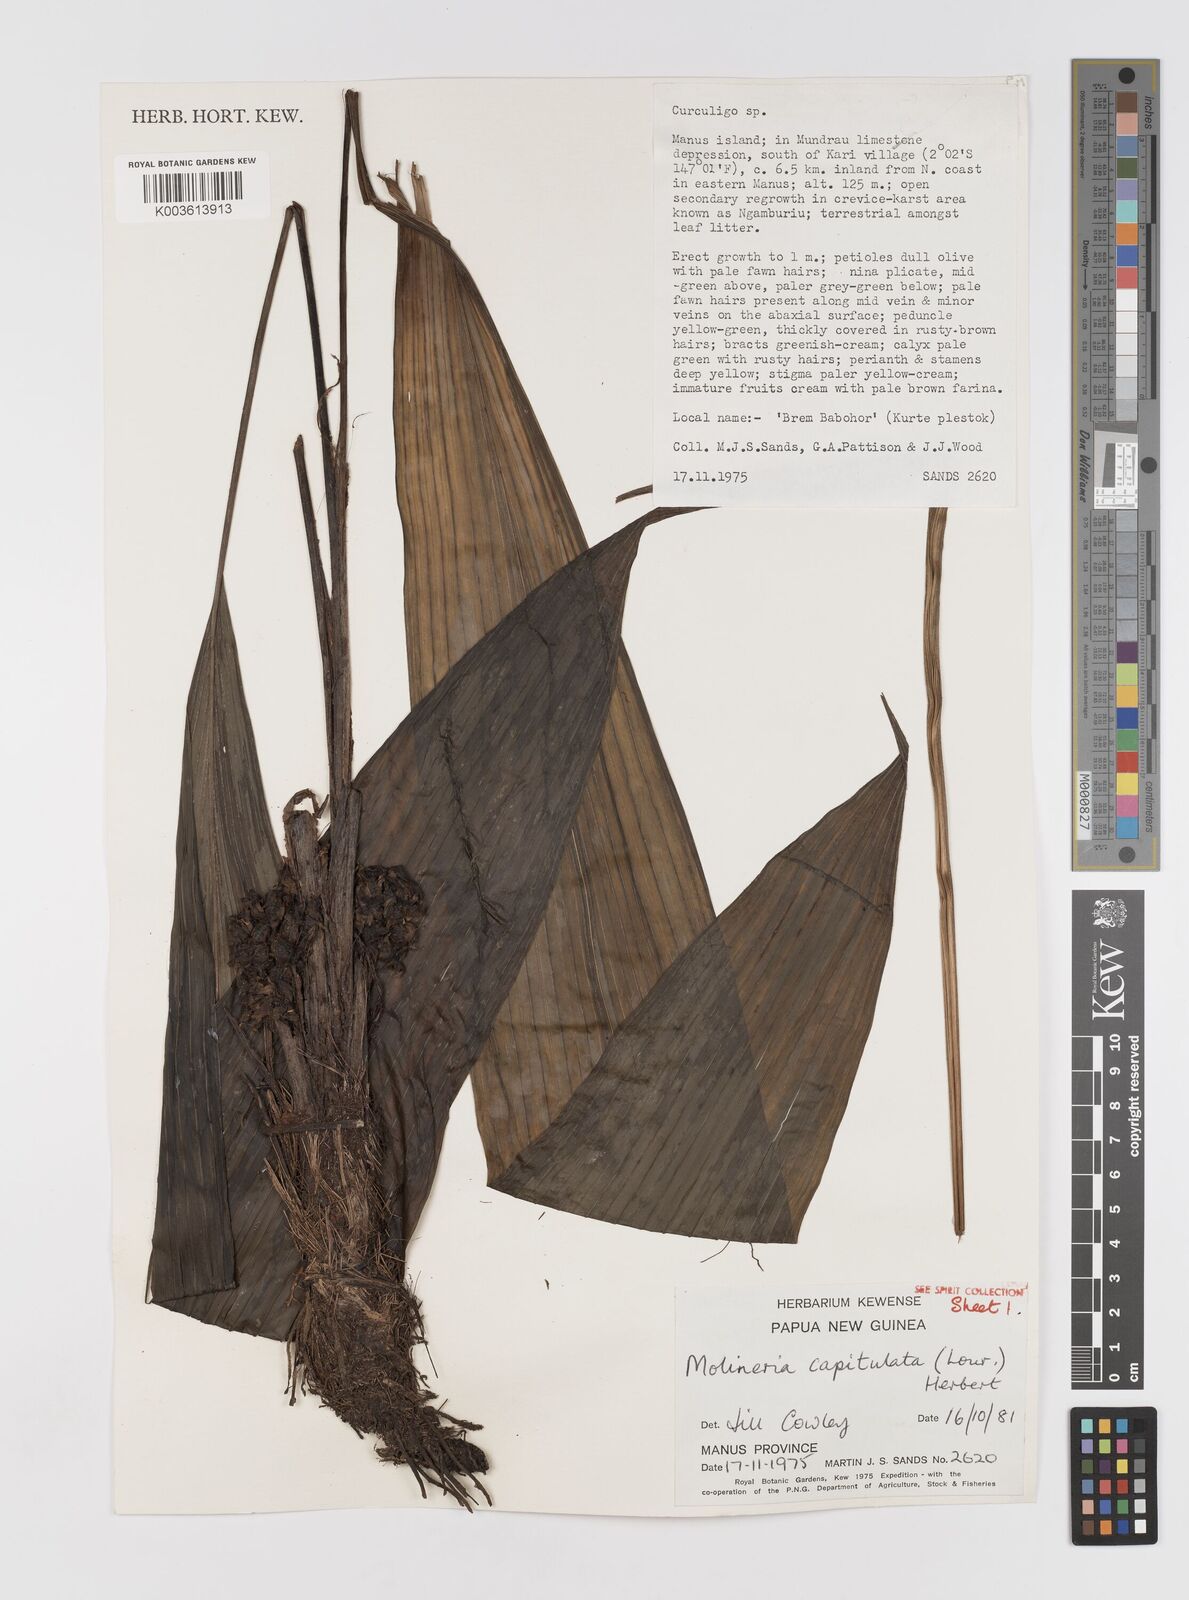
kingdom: Plantae
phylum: Tracheophyta
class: Liliopsida
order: Asparagales
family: Hypoxidaceae
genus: Curculigo
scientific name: Curculigo capitulata
